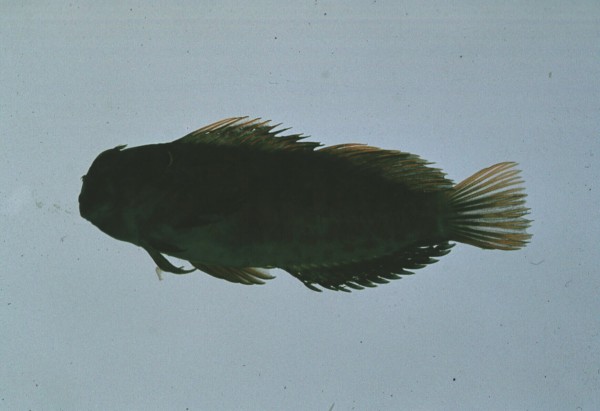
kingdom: Animalia
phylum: Chordata
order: Perciformes
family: Blenniidae
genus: Cirripectes
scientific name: Cirripectes polyzona
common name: Barred blenny
